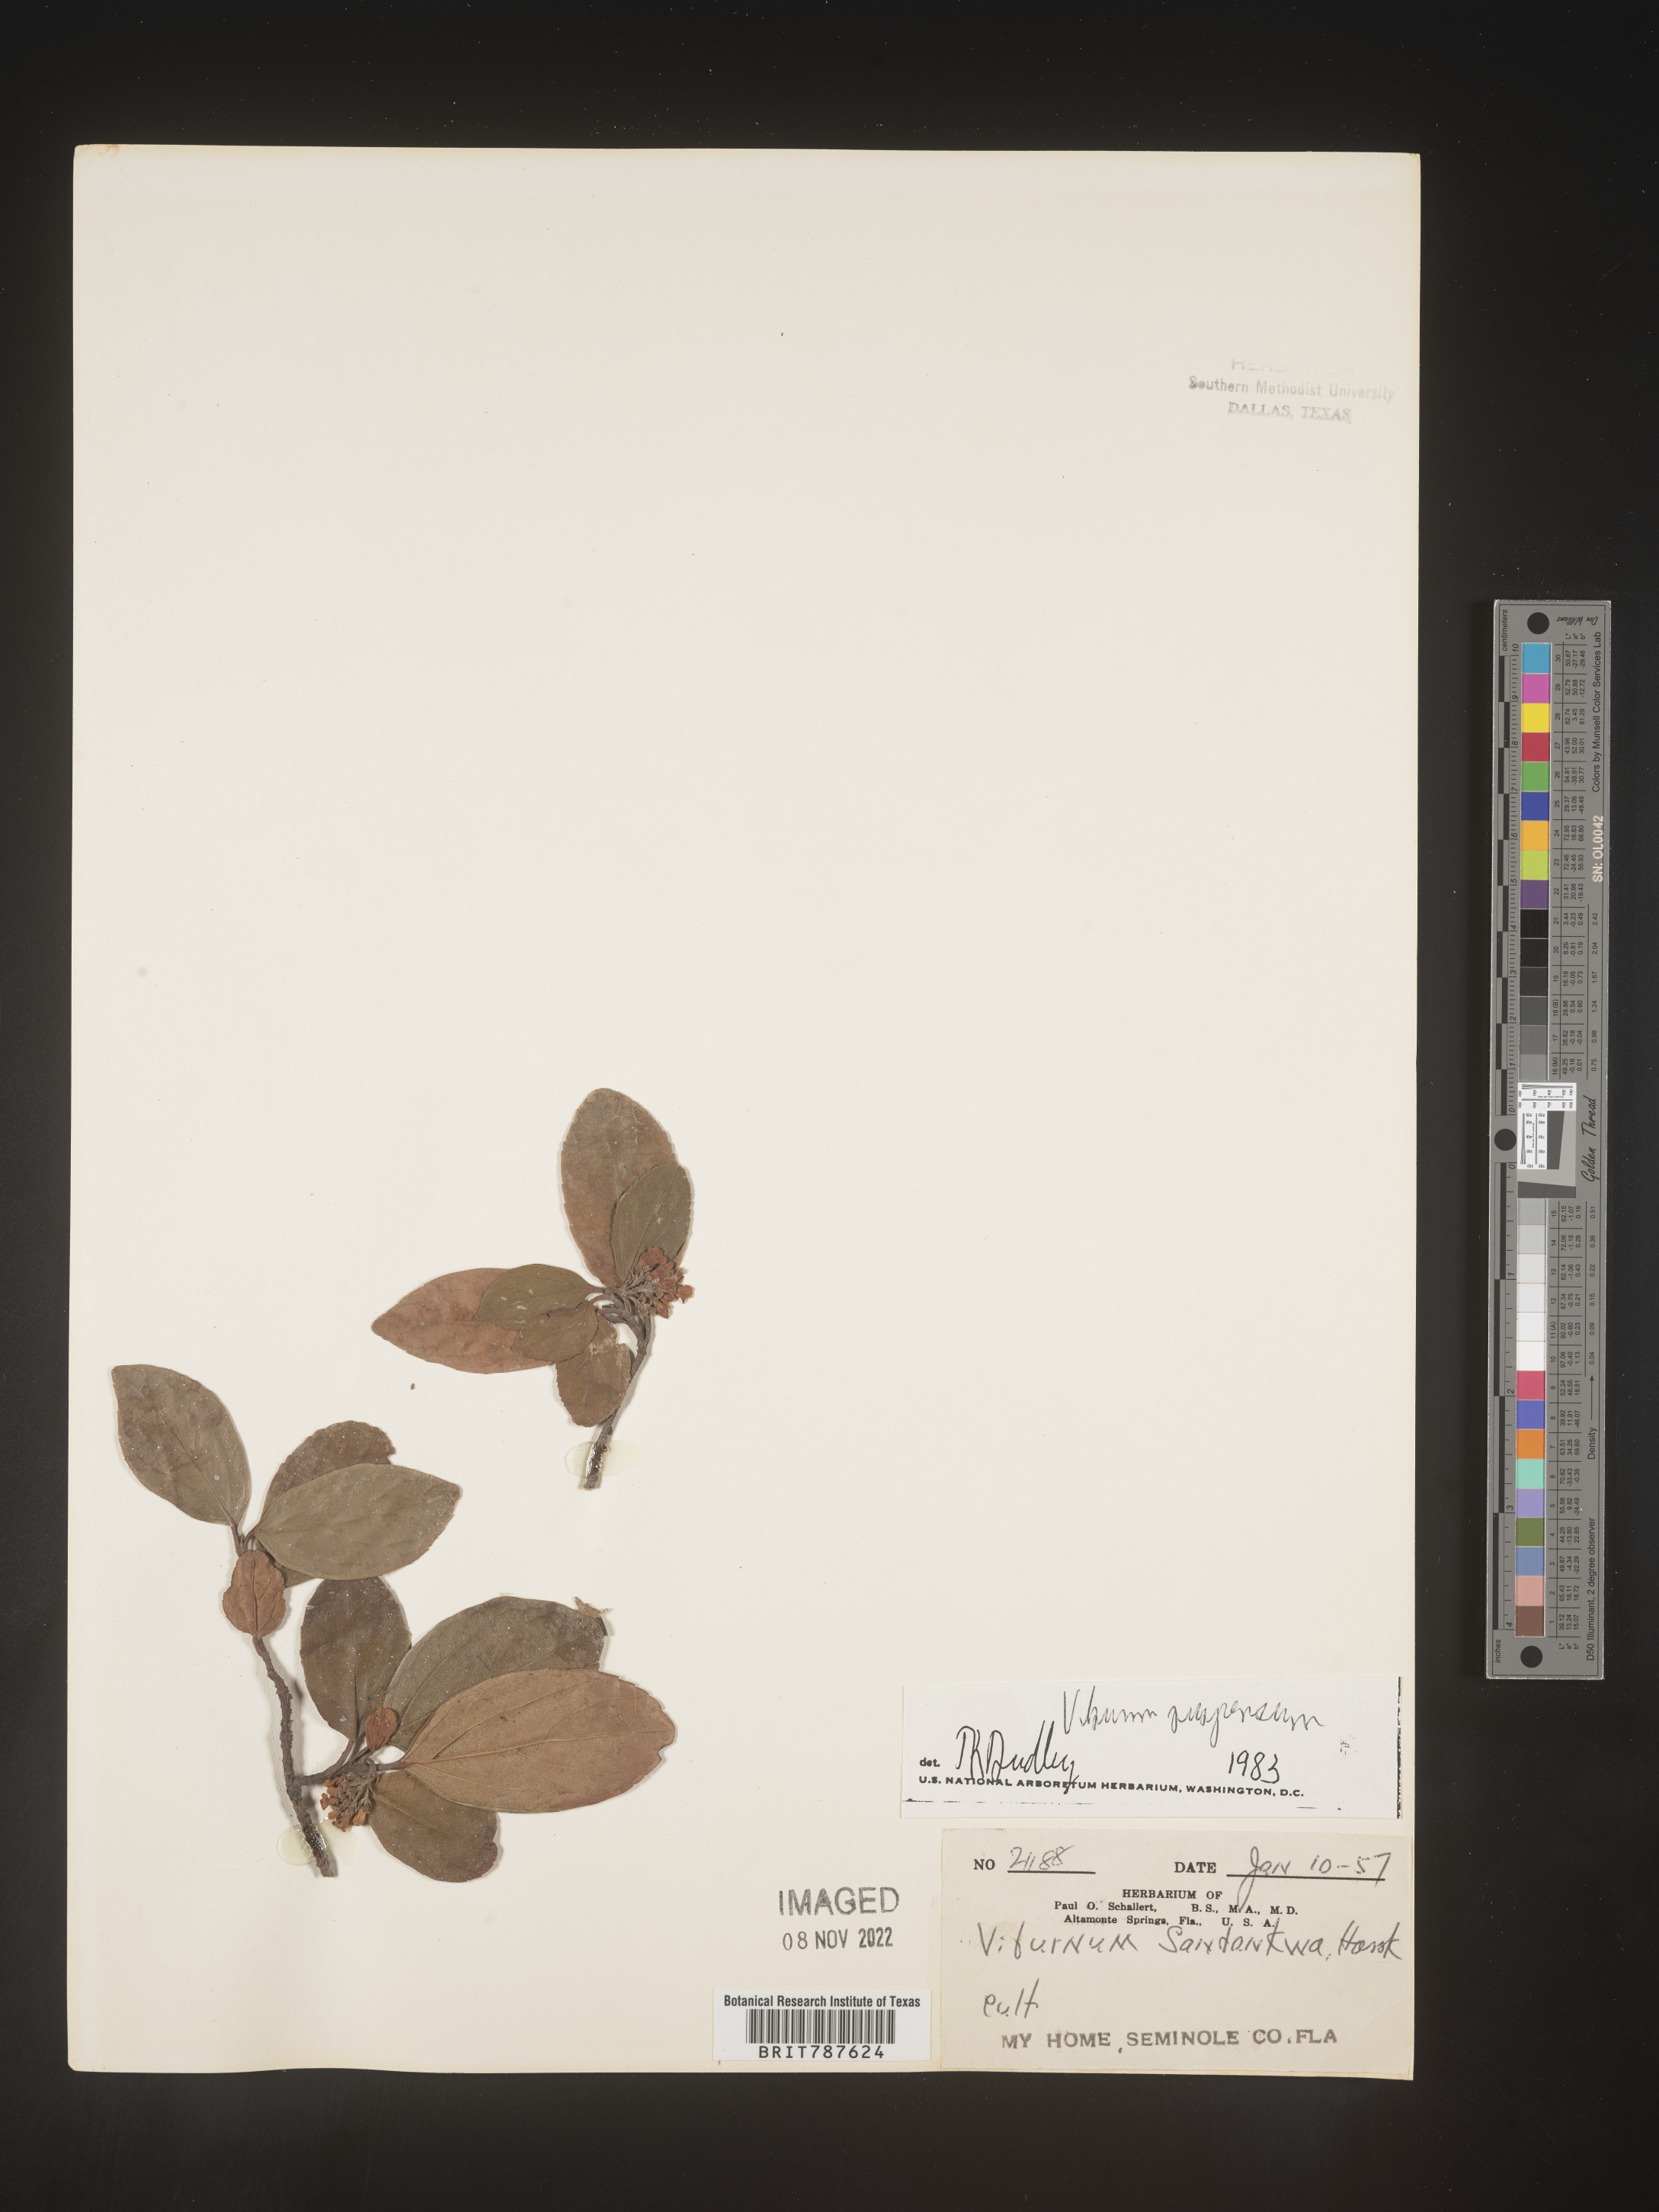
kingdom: Plantae
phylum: Tracheophyta
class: Magnoliopsida
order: Dipsacales
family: Viburnaceae
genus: Viburnum
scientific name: Viburnum
